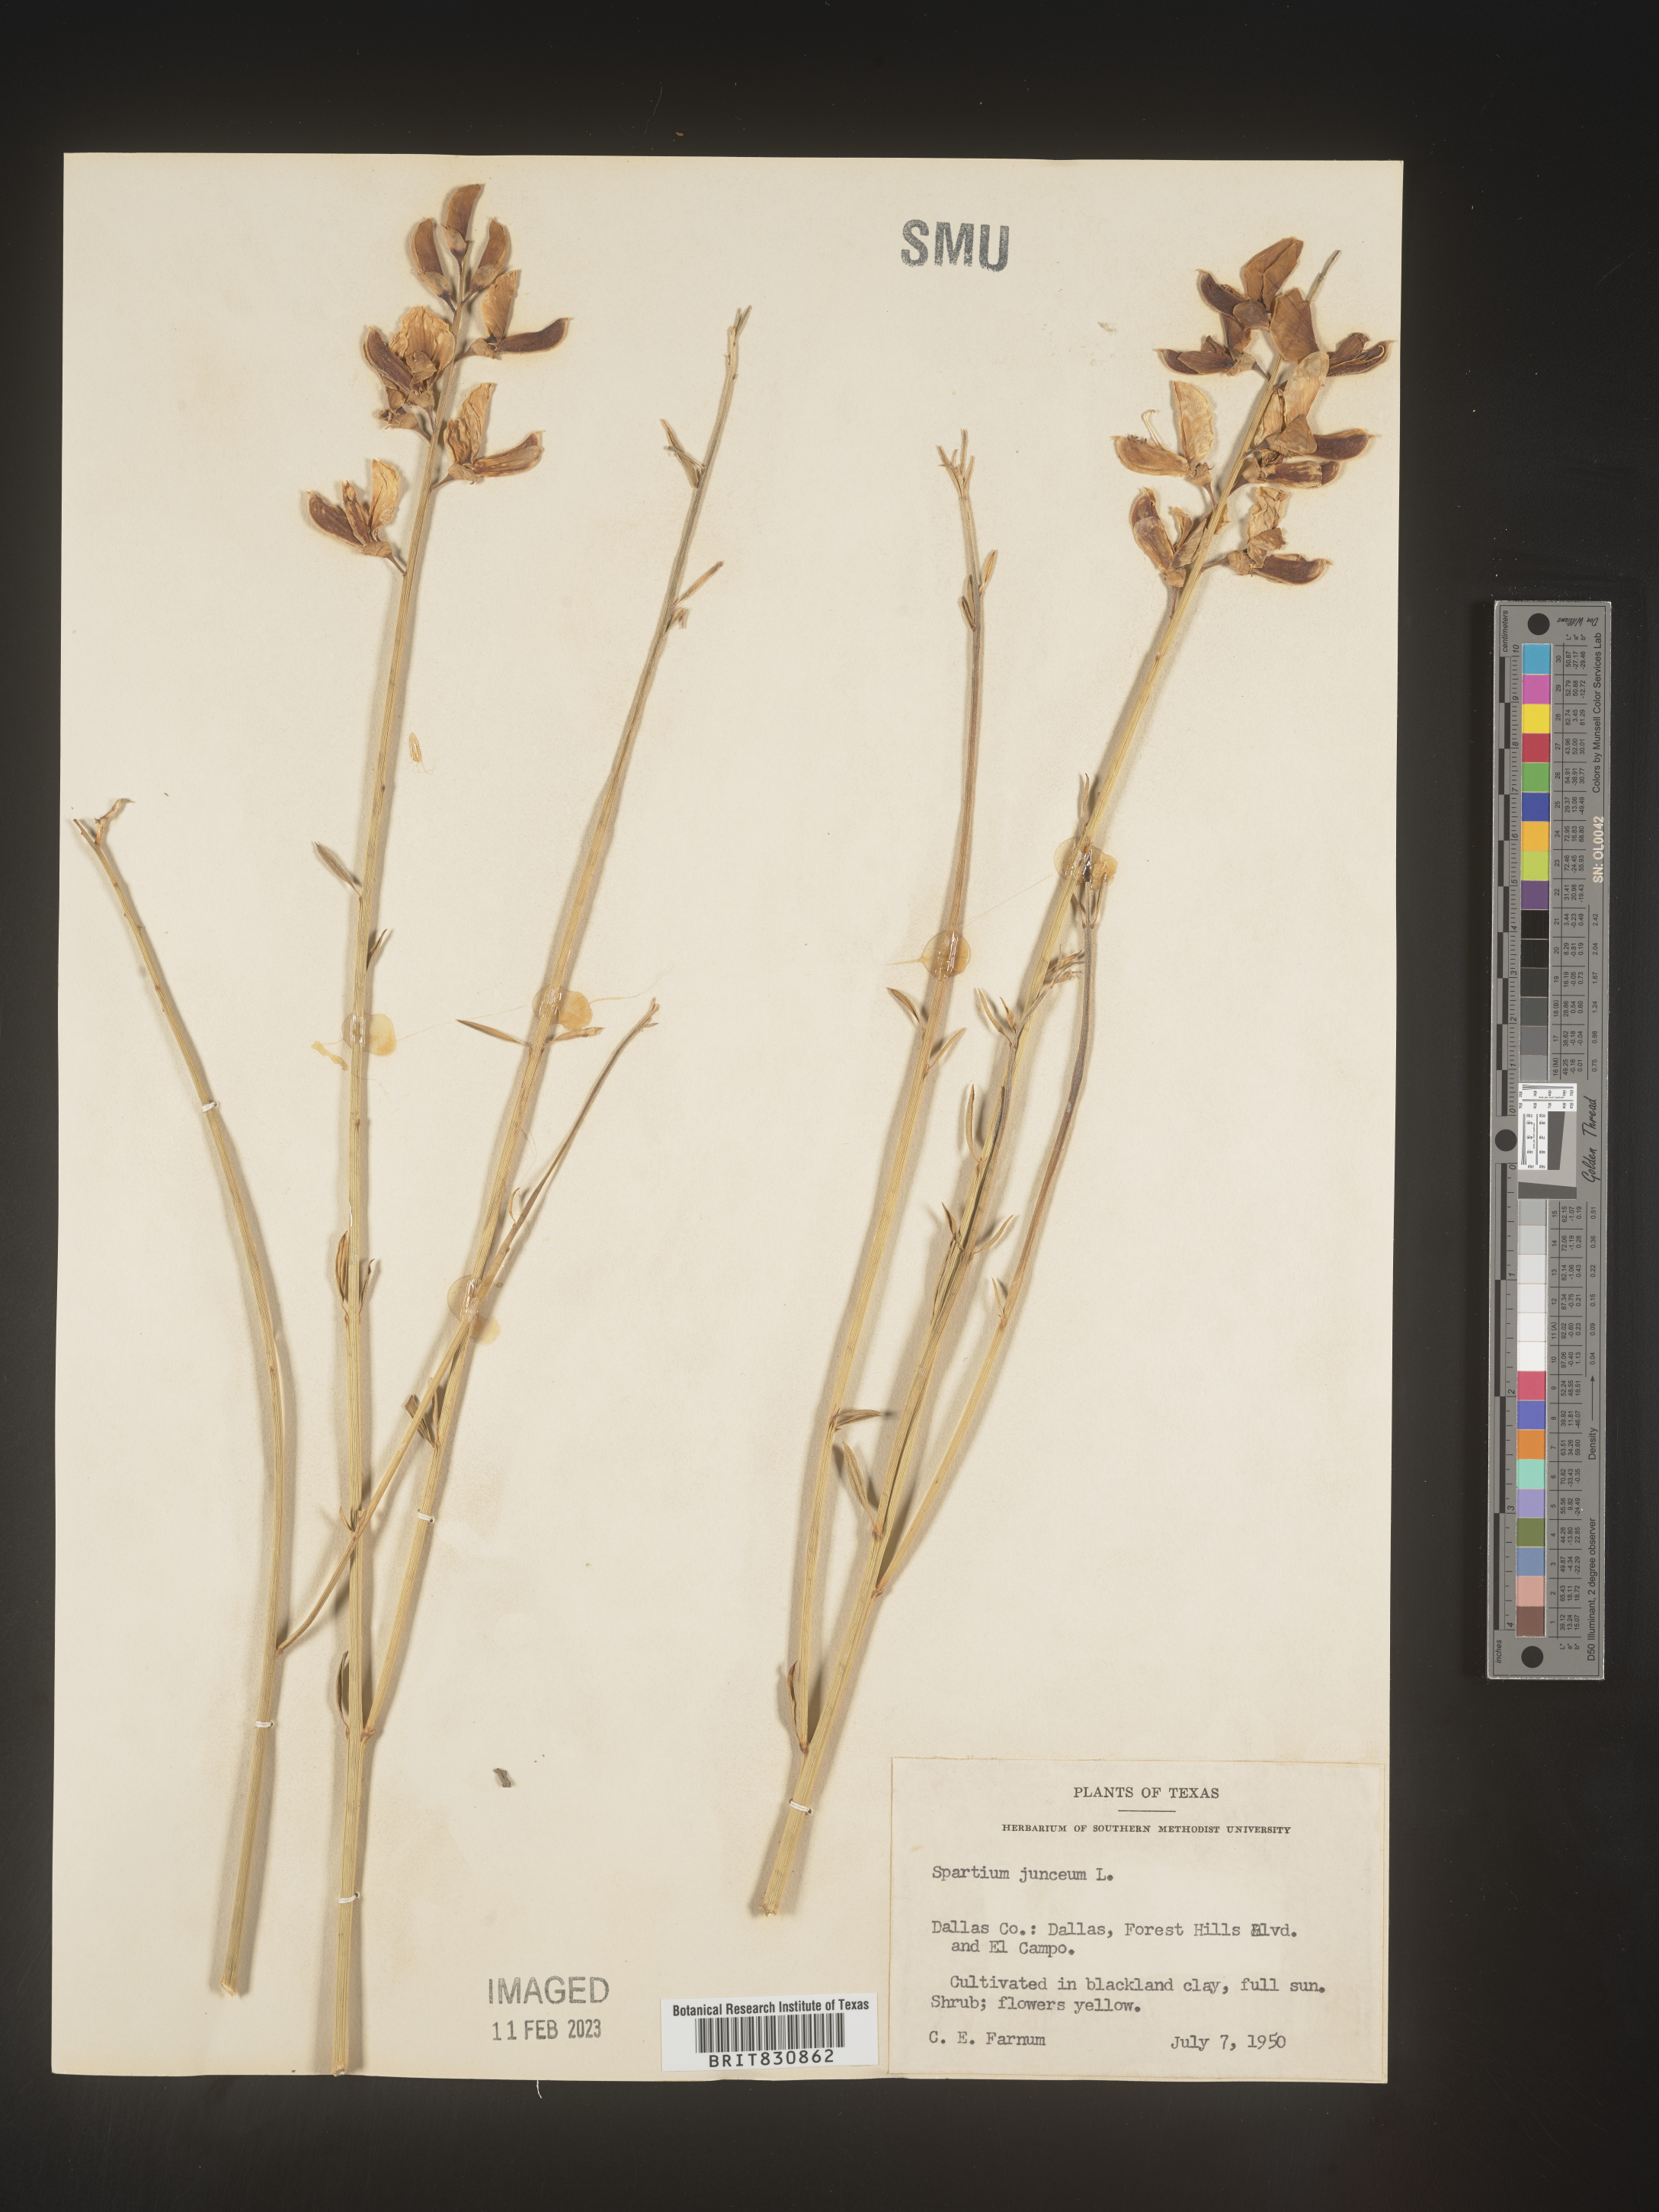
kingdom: Plantae
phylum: Tracheophyta
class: Magnoliopsida
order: Fabales
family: Fabaceae
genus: Spartium
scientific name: Spartium
